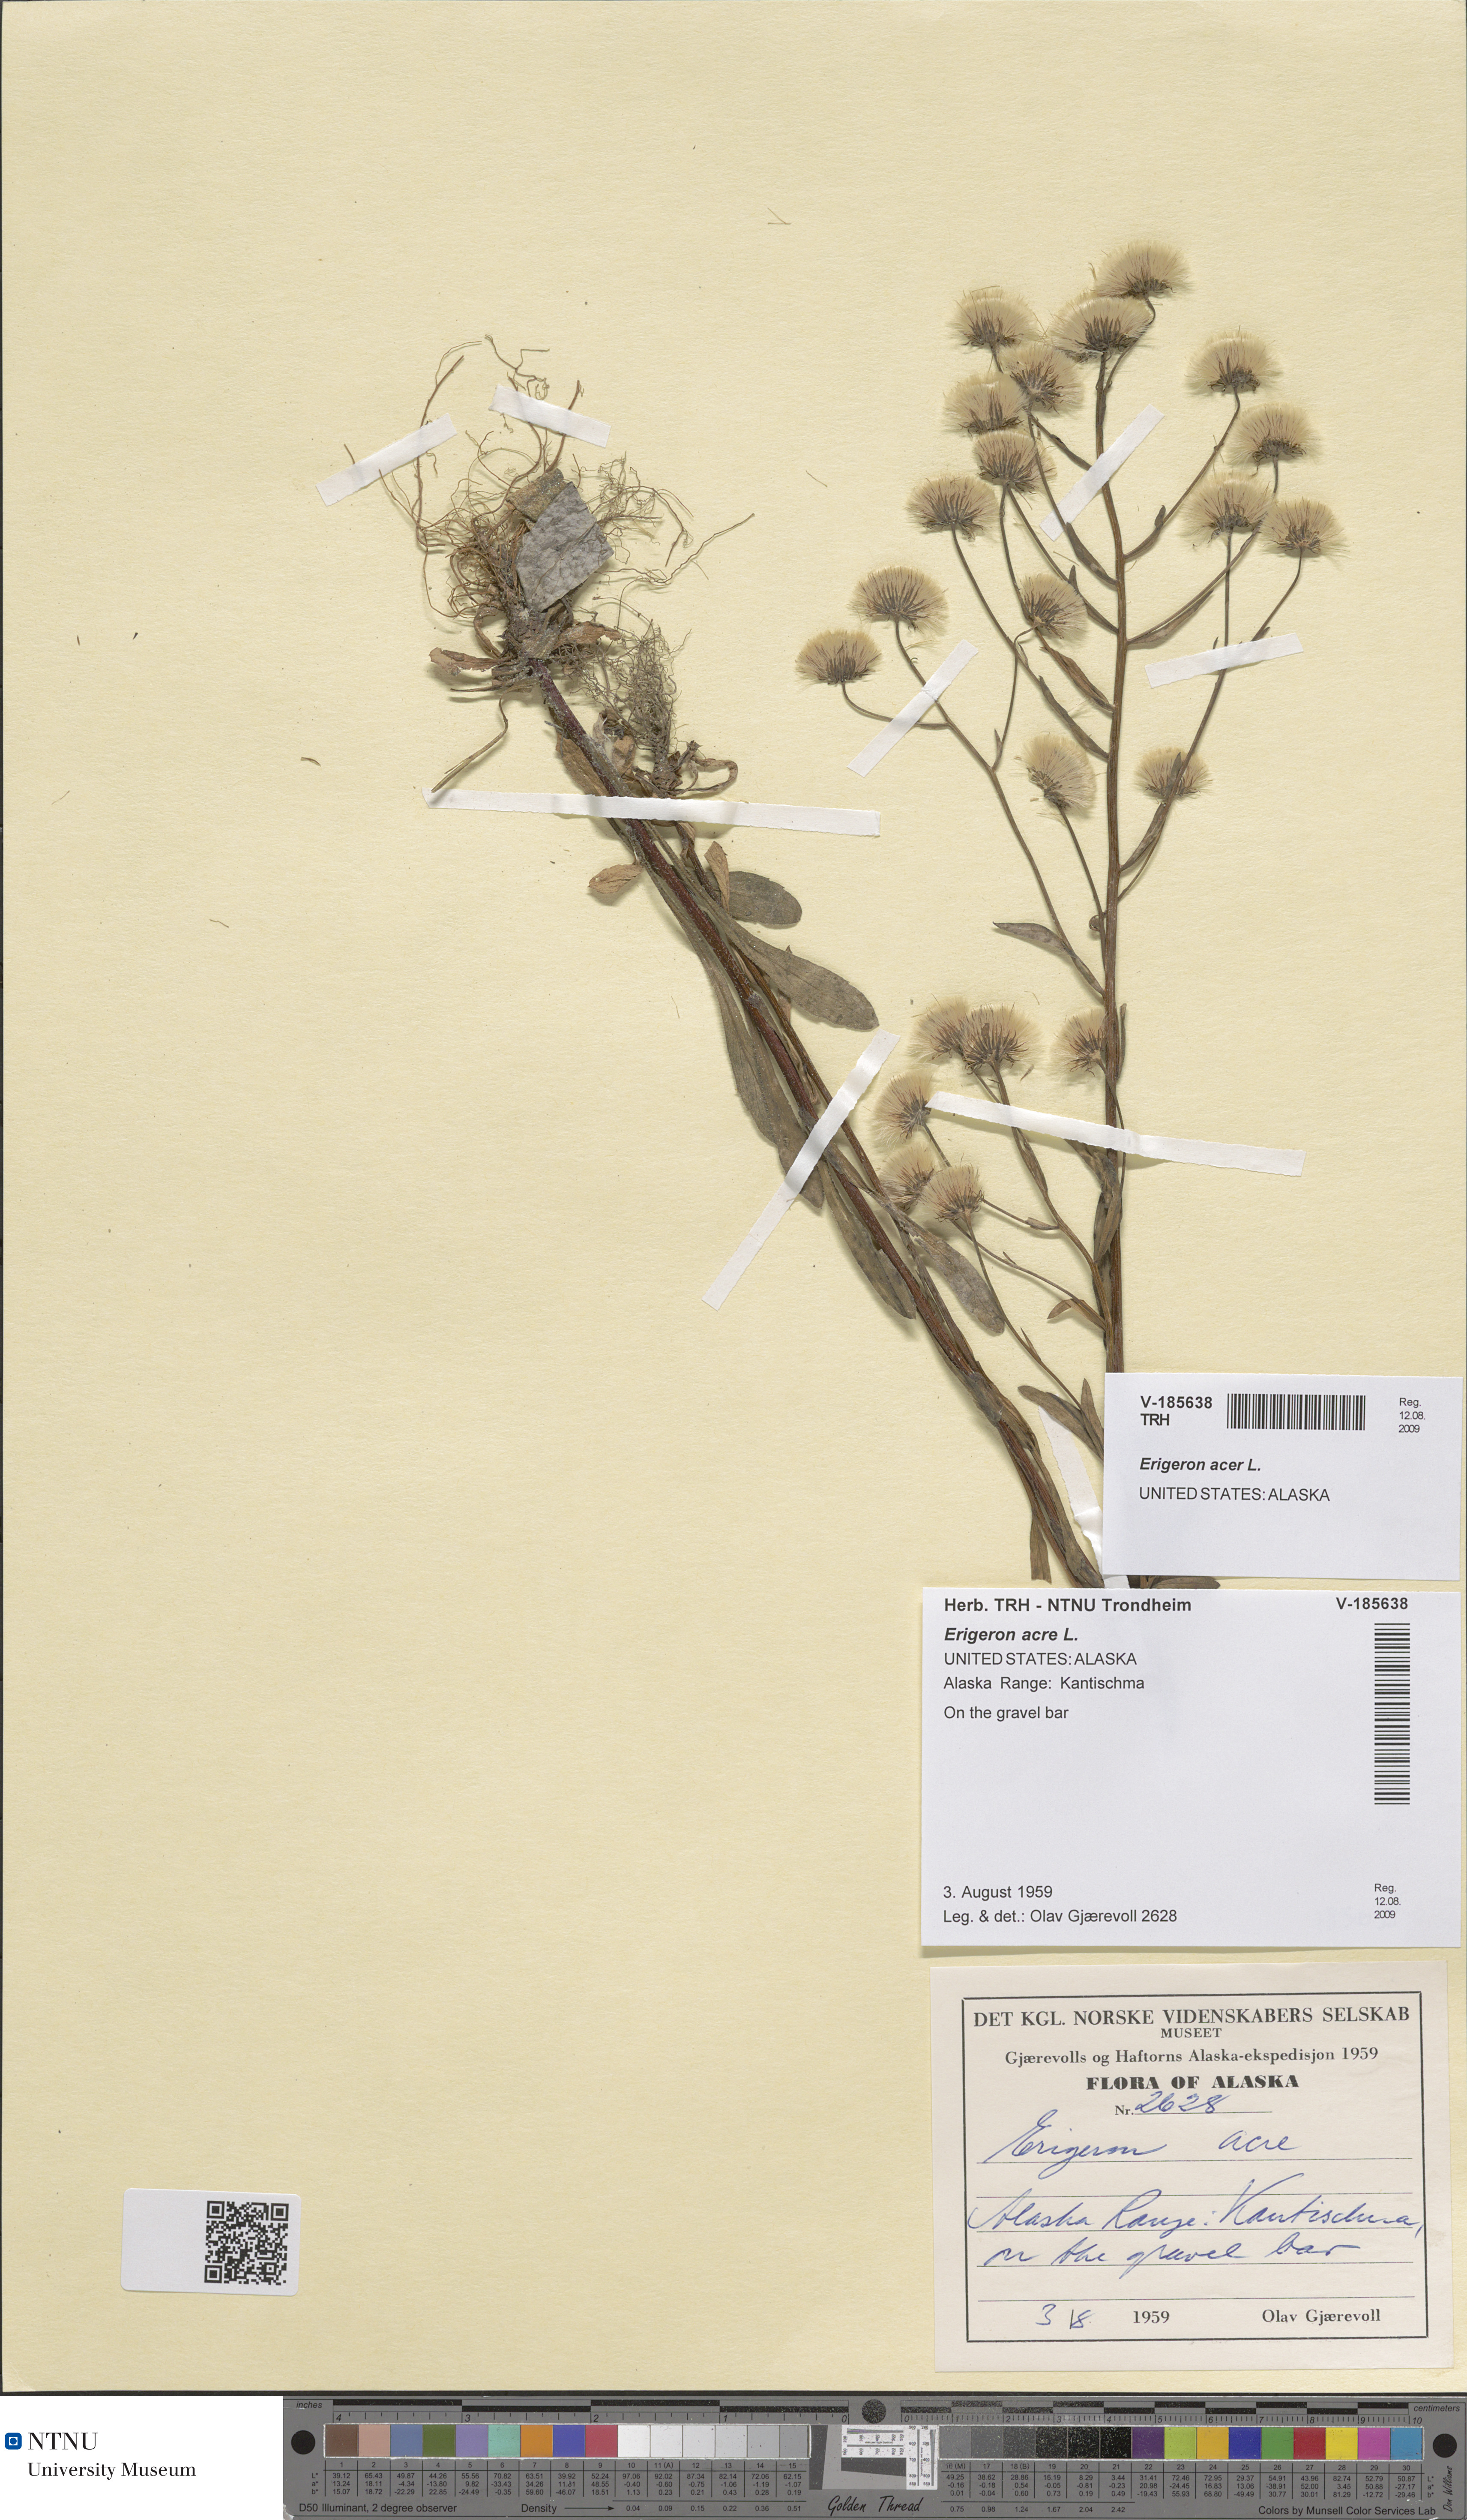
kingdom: Plantae
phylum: Tracheophyta
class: Magnoliopsida
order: Asterales
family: Asteraceae
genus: Erigeron
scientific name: Erigeron acris
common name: Blue fleabane
